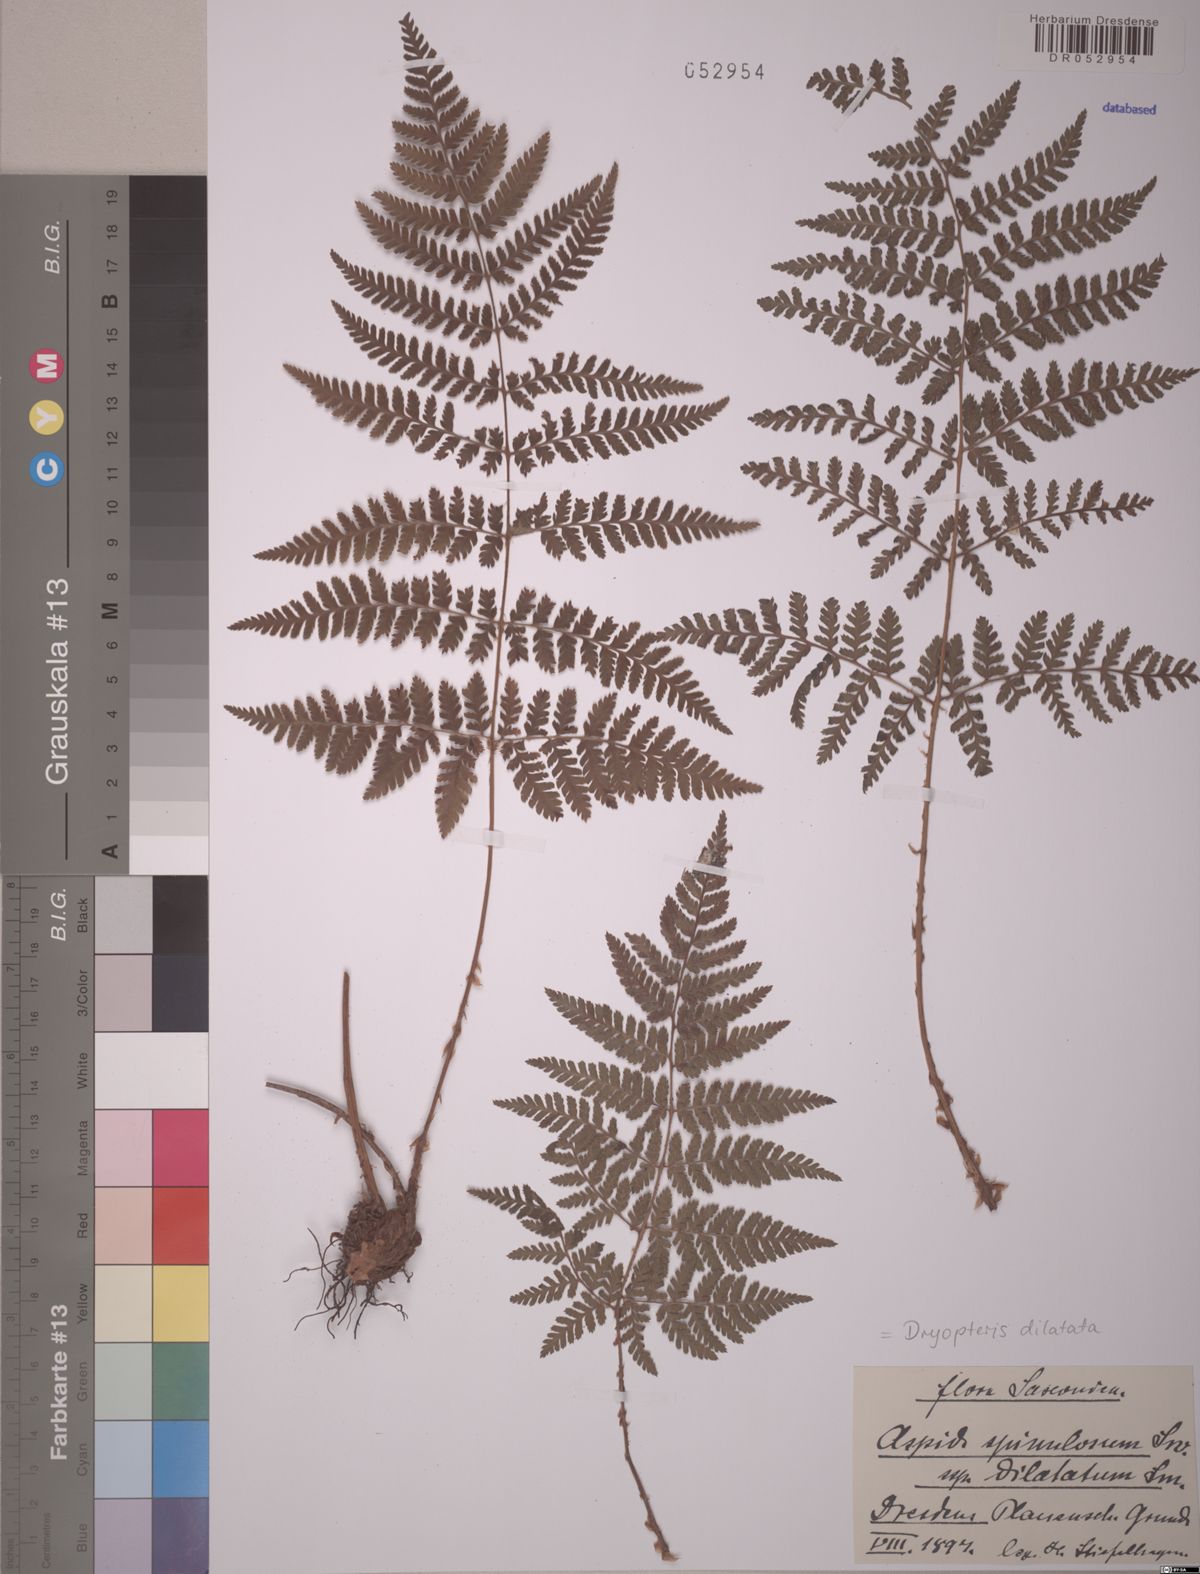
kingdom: Plantae
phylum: Tracheophyta
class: Polypodiopsida
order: Polypodiales
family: Dryopteridaceae
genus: Dryopteris
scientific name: Dryopteris dilatata
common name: Broad buckler-fern
